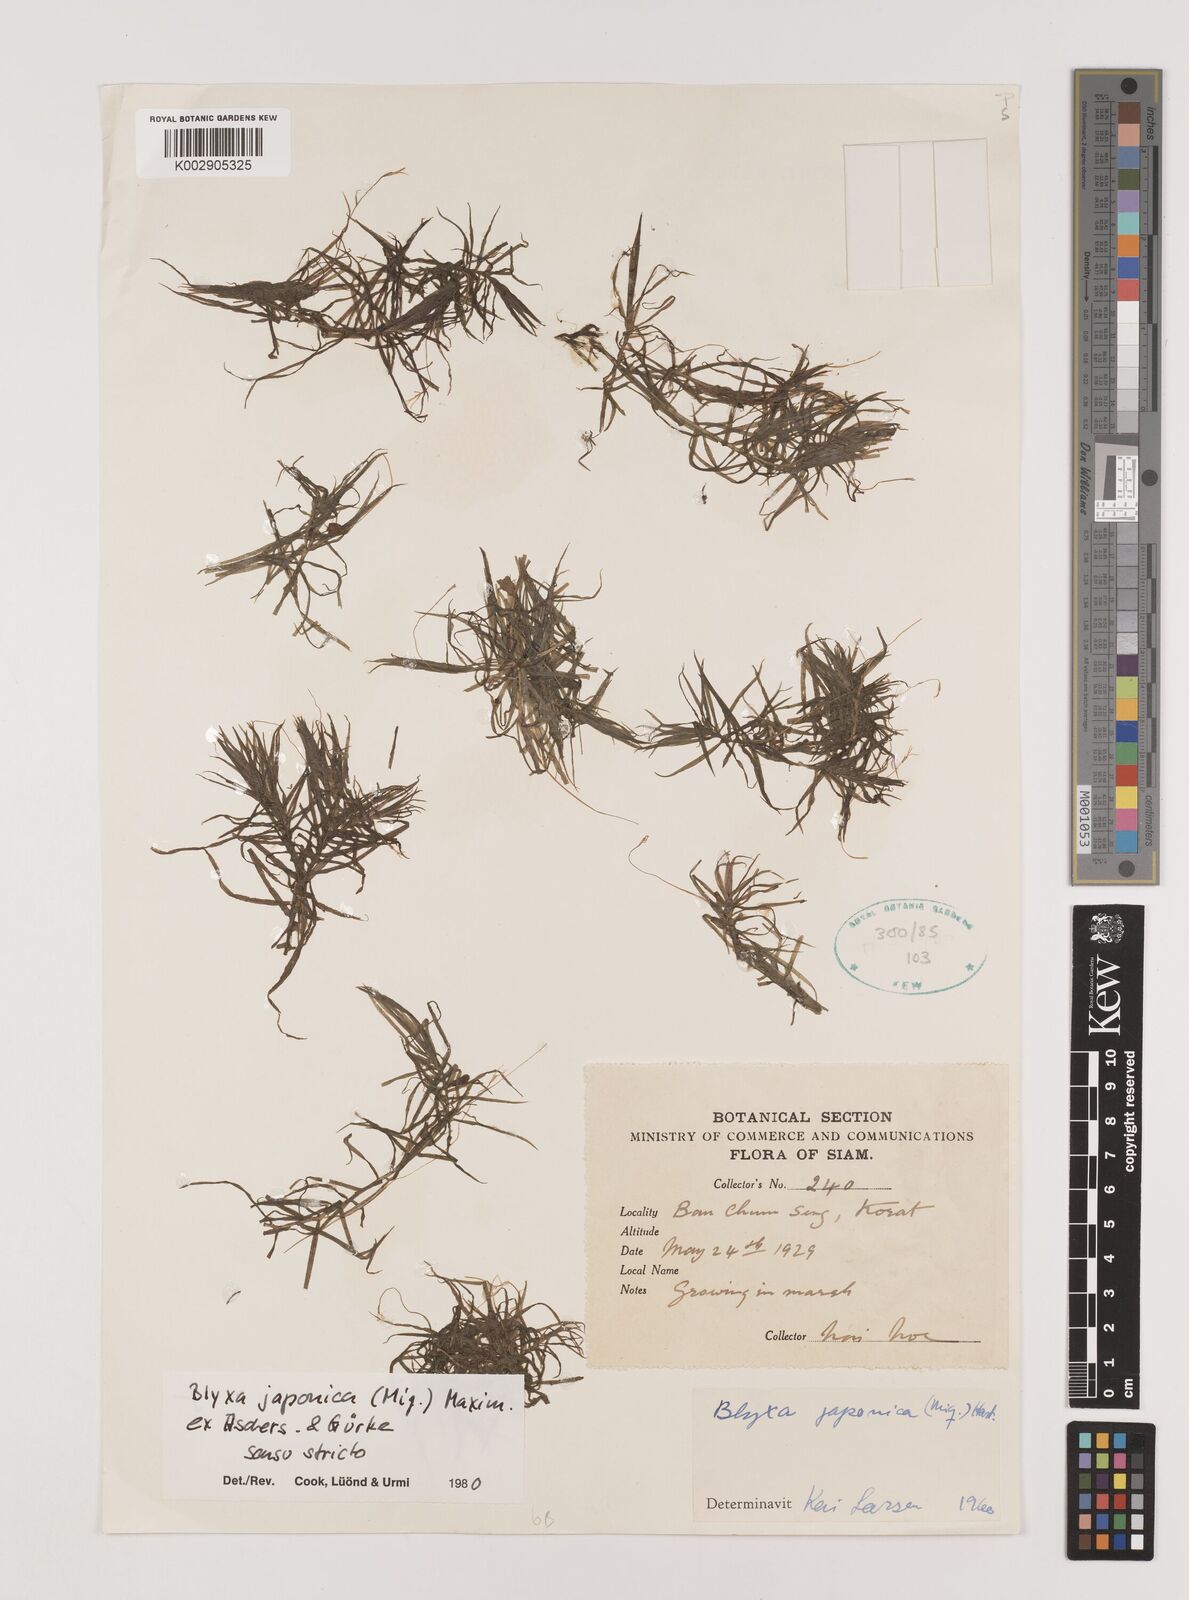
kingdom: Plantae
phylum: Tracheophyta
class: Liliopsida
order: Alismatales
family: Hydrocharitaceae
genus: Blyxa
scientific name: Blyxa japonica
